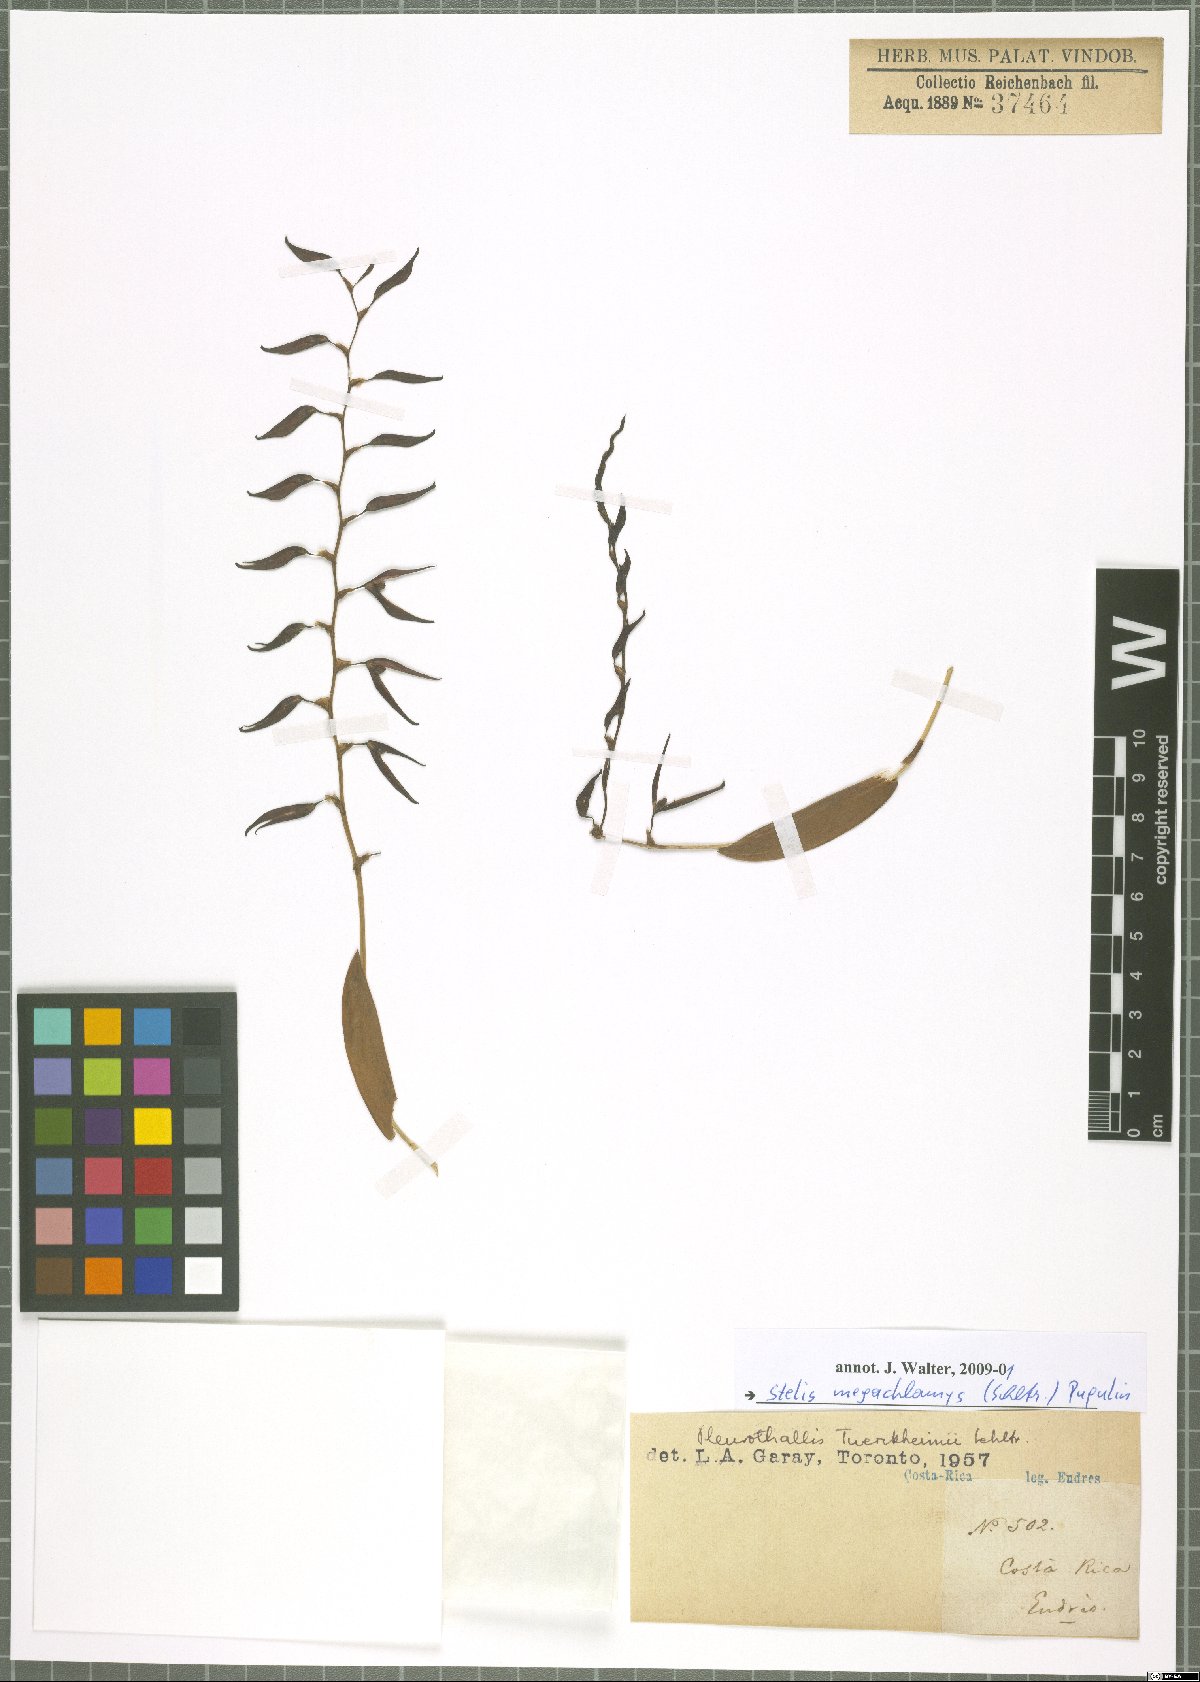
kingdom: Plantae
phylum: Tracheophyta
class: Liliopsida
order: Asparagales
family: Orchidaceae
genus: Stelis
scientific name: Stelis megachlamys
